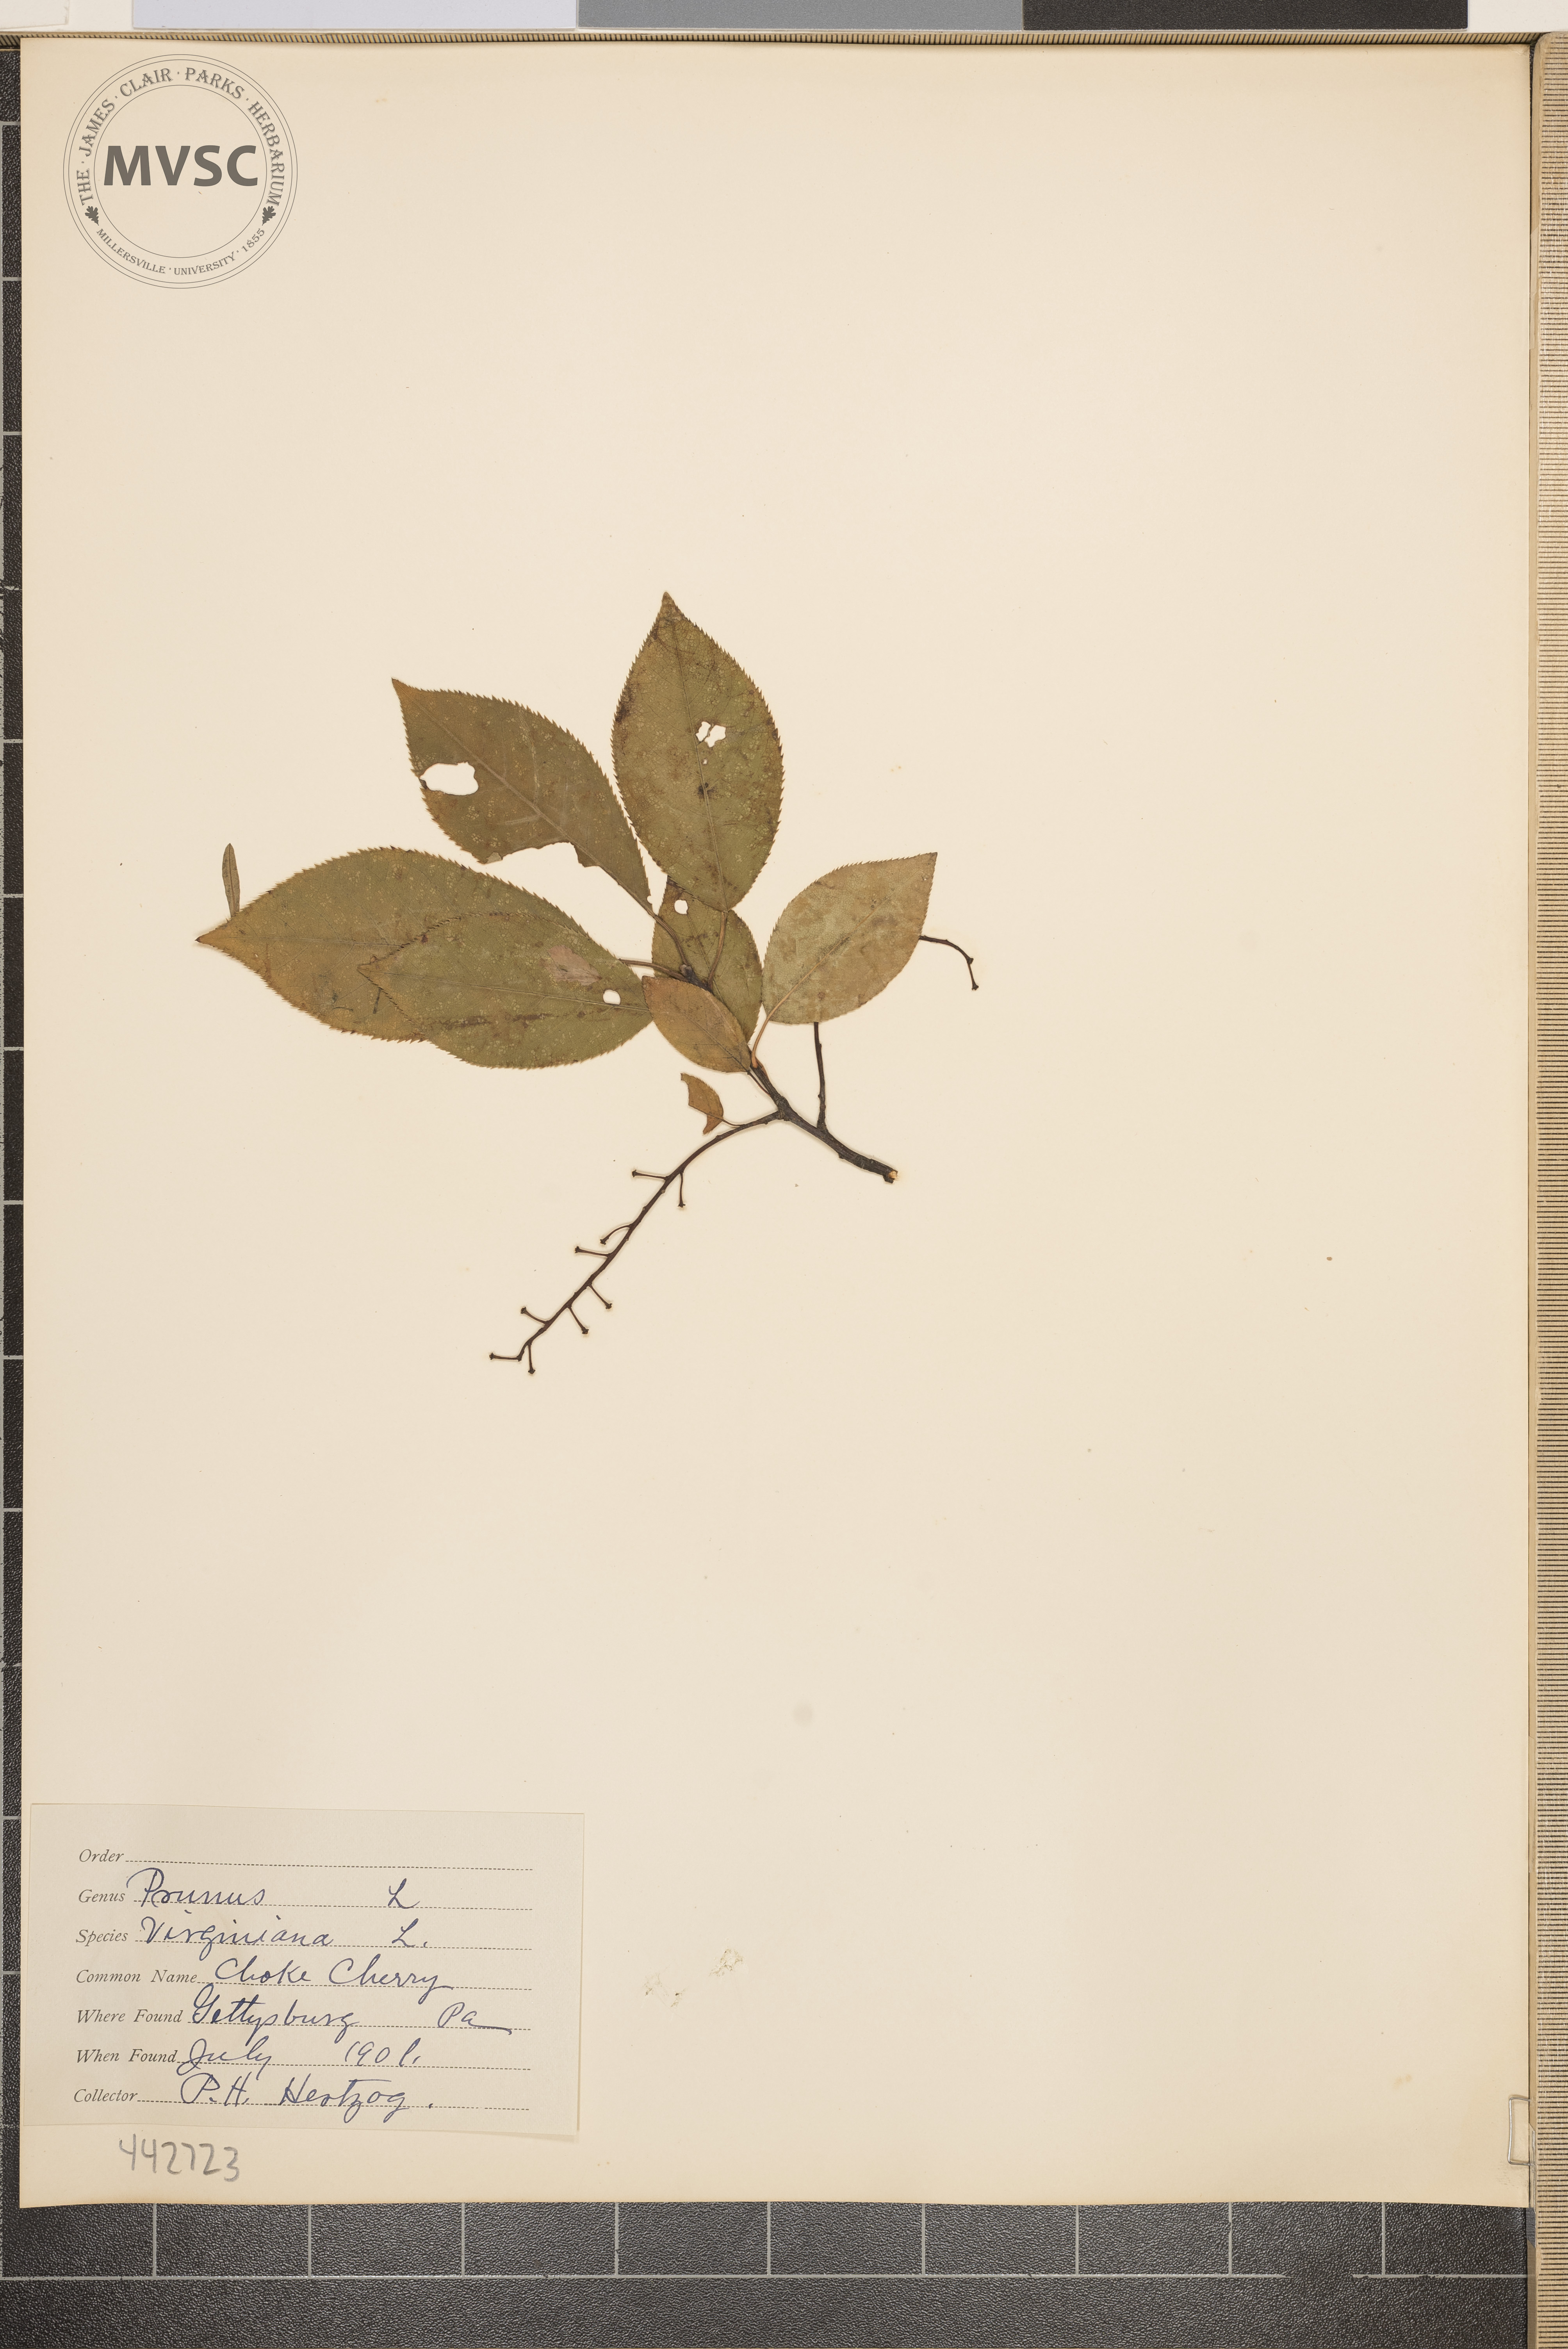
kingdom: Plantae
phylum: Tracheophyta
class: Magnoliopsida
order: Rosales
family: Rosaceae
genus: Prunus
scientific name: Prunus virginiana
